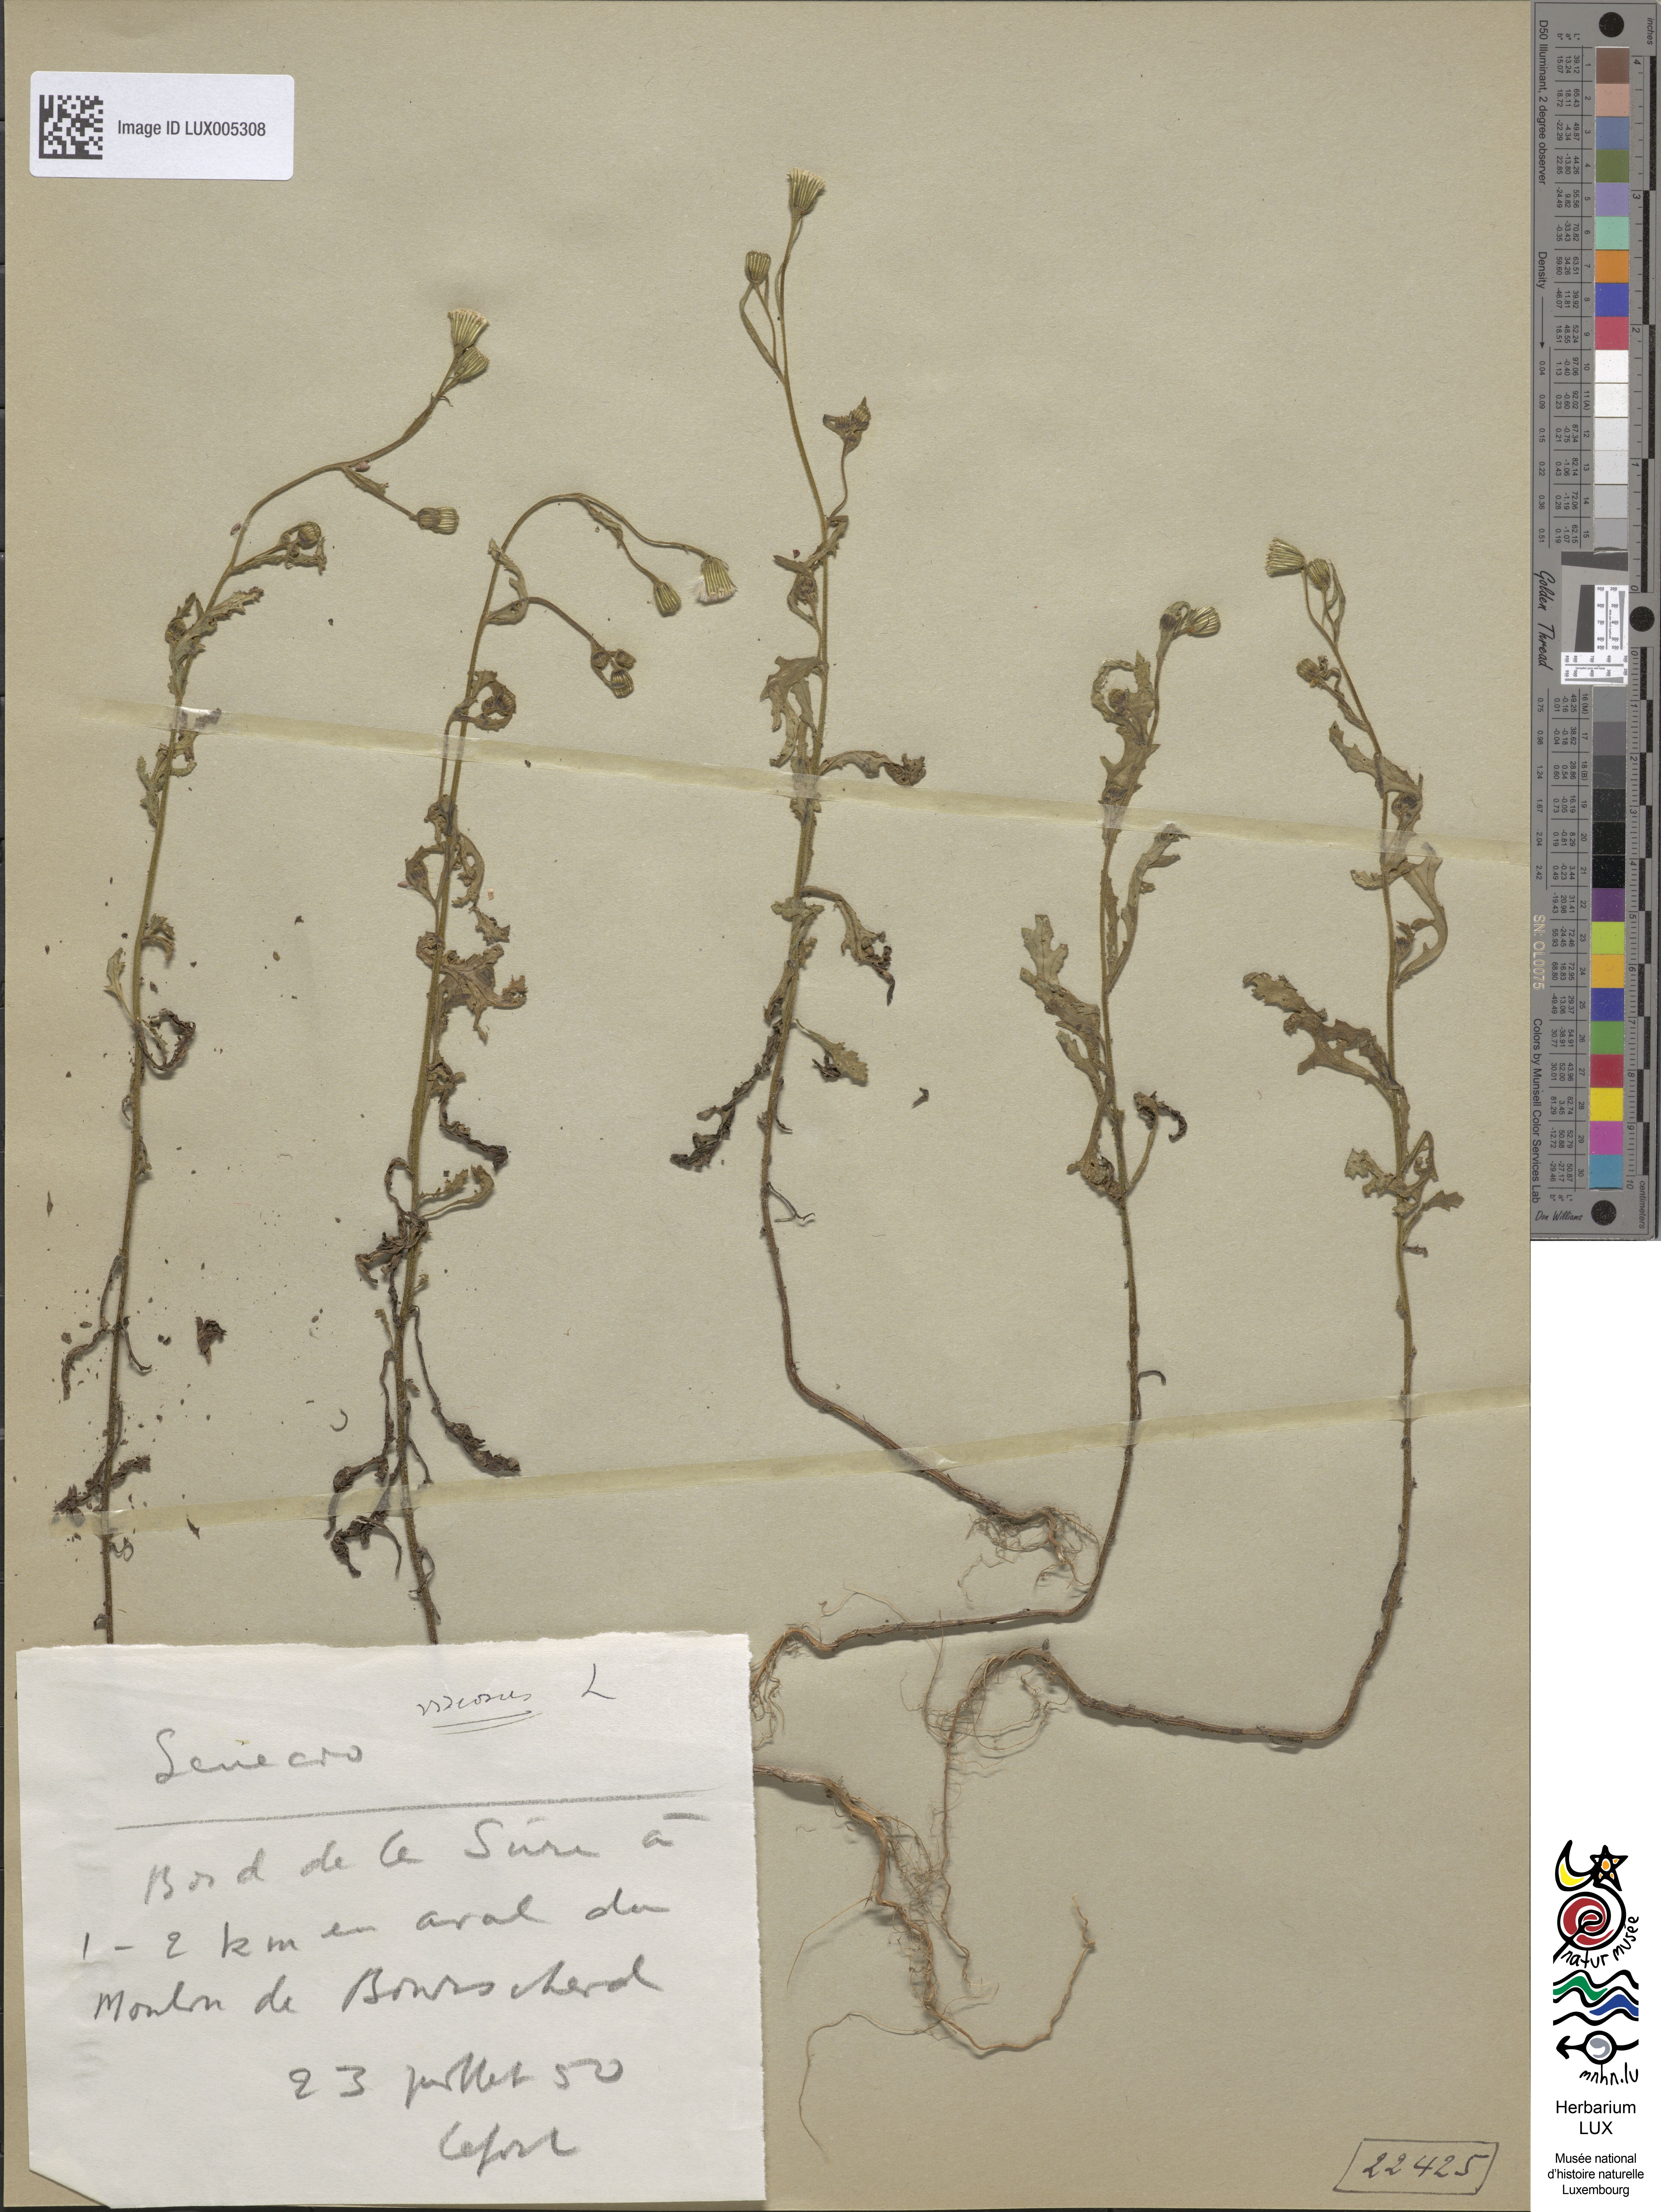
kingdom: Plantae
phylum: Tracheophyta
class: Magnoliopsida
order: Asterales
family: Asteraceae
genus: Senecio
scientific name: Senecio viscosus
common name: Sticky groundsel
